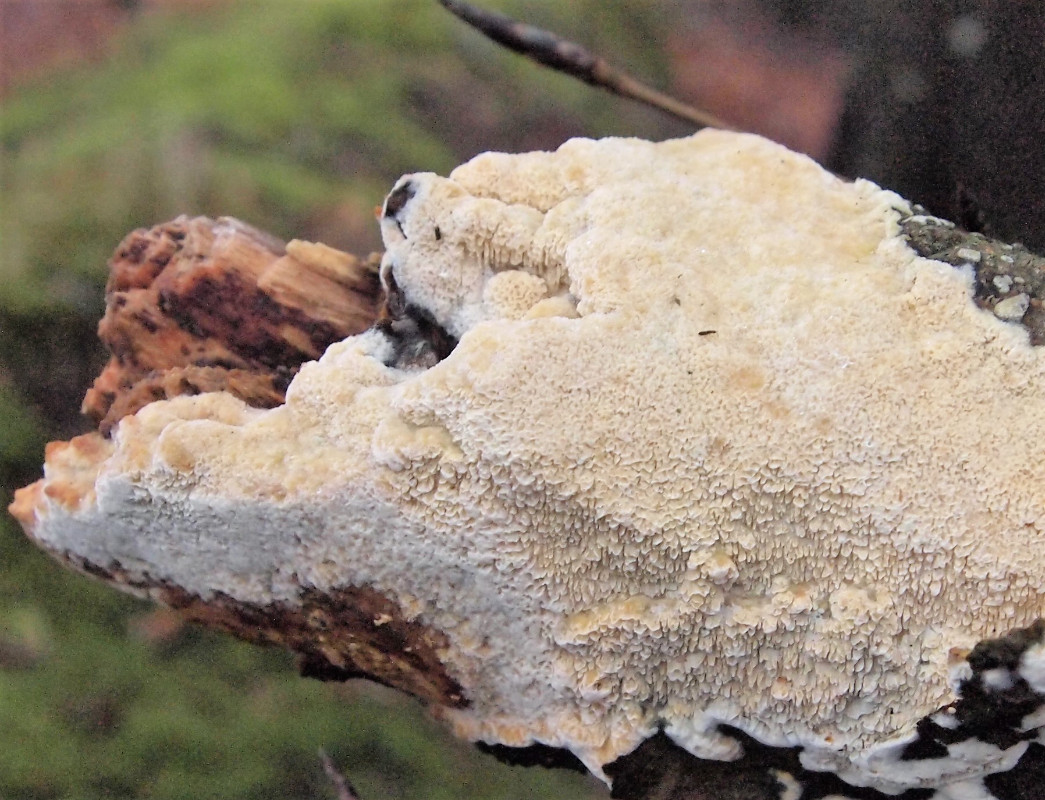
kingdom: Fungi
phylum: Basidiomycota
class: Agaricomycetes
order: Hymenochaetales
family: Schizoporaceae
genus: Schizopora
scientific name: Schizopora paradoxa
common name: hvid tandsvamp
